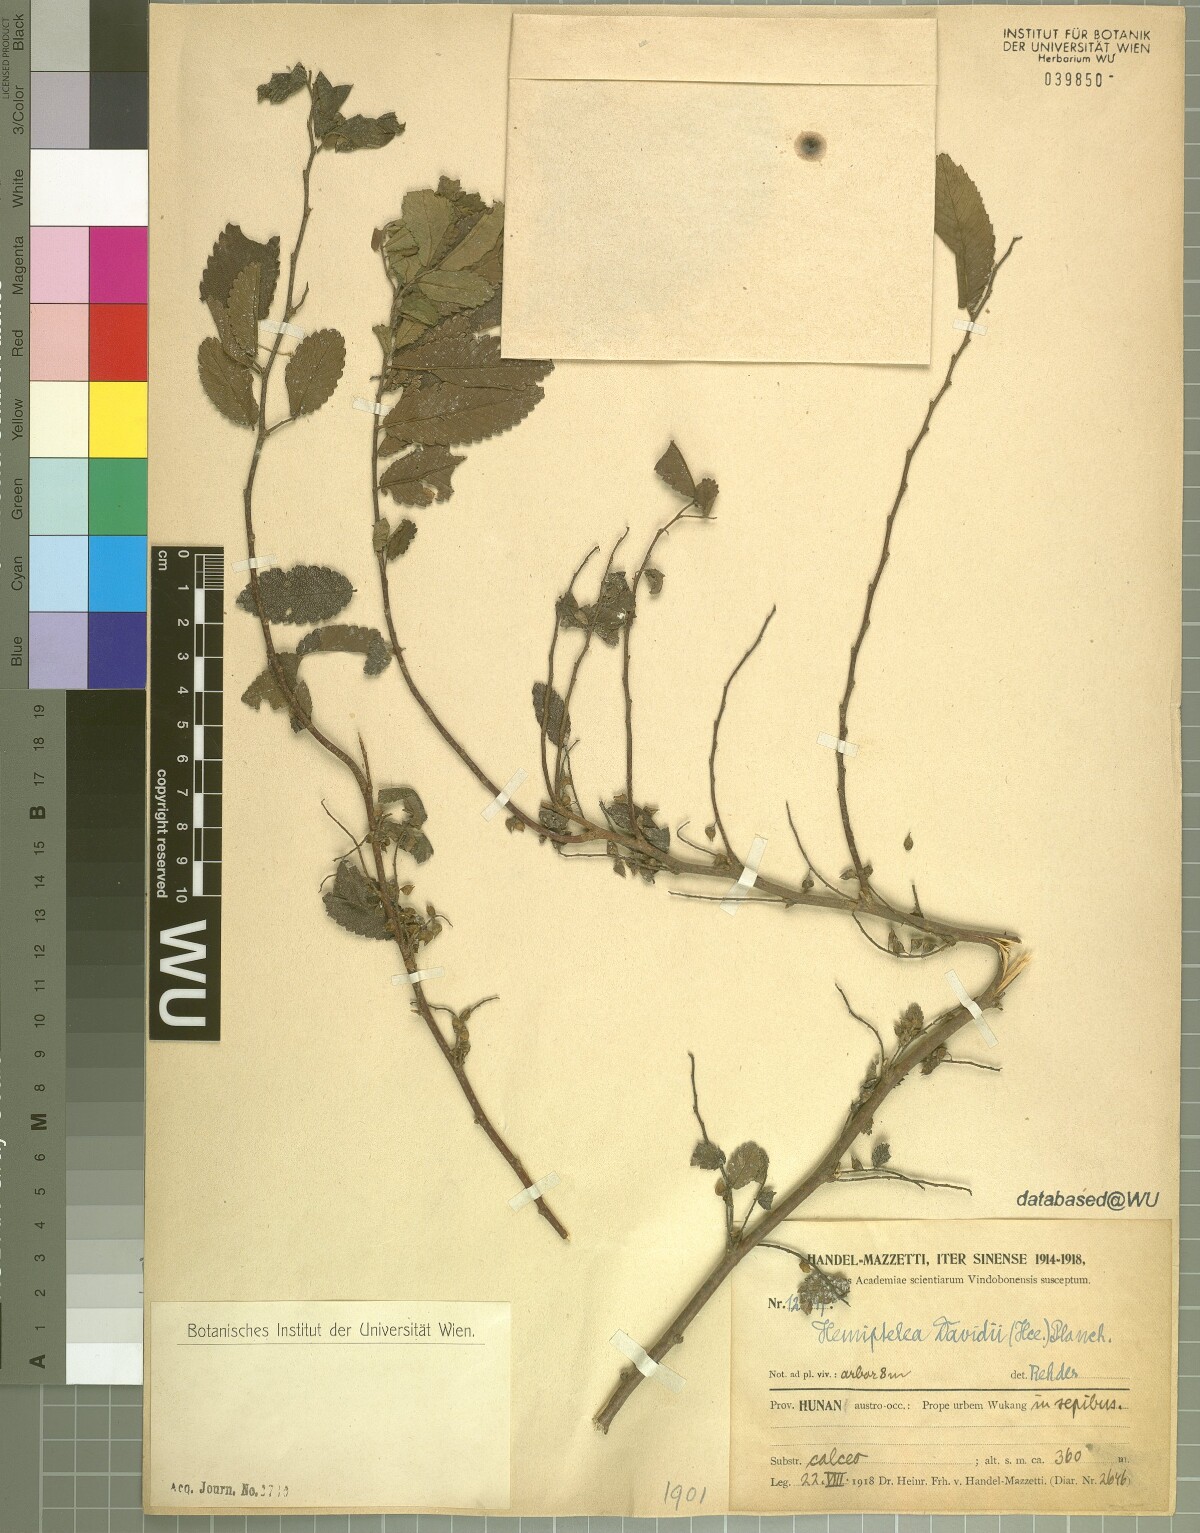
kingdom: Plantae
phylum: Tracheophyta
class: Magnoliopsida
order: Rosales
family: Ulmaceae
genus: Hemiptelea
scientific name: Hemiptelea davidii
